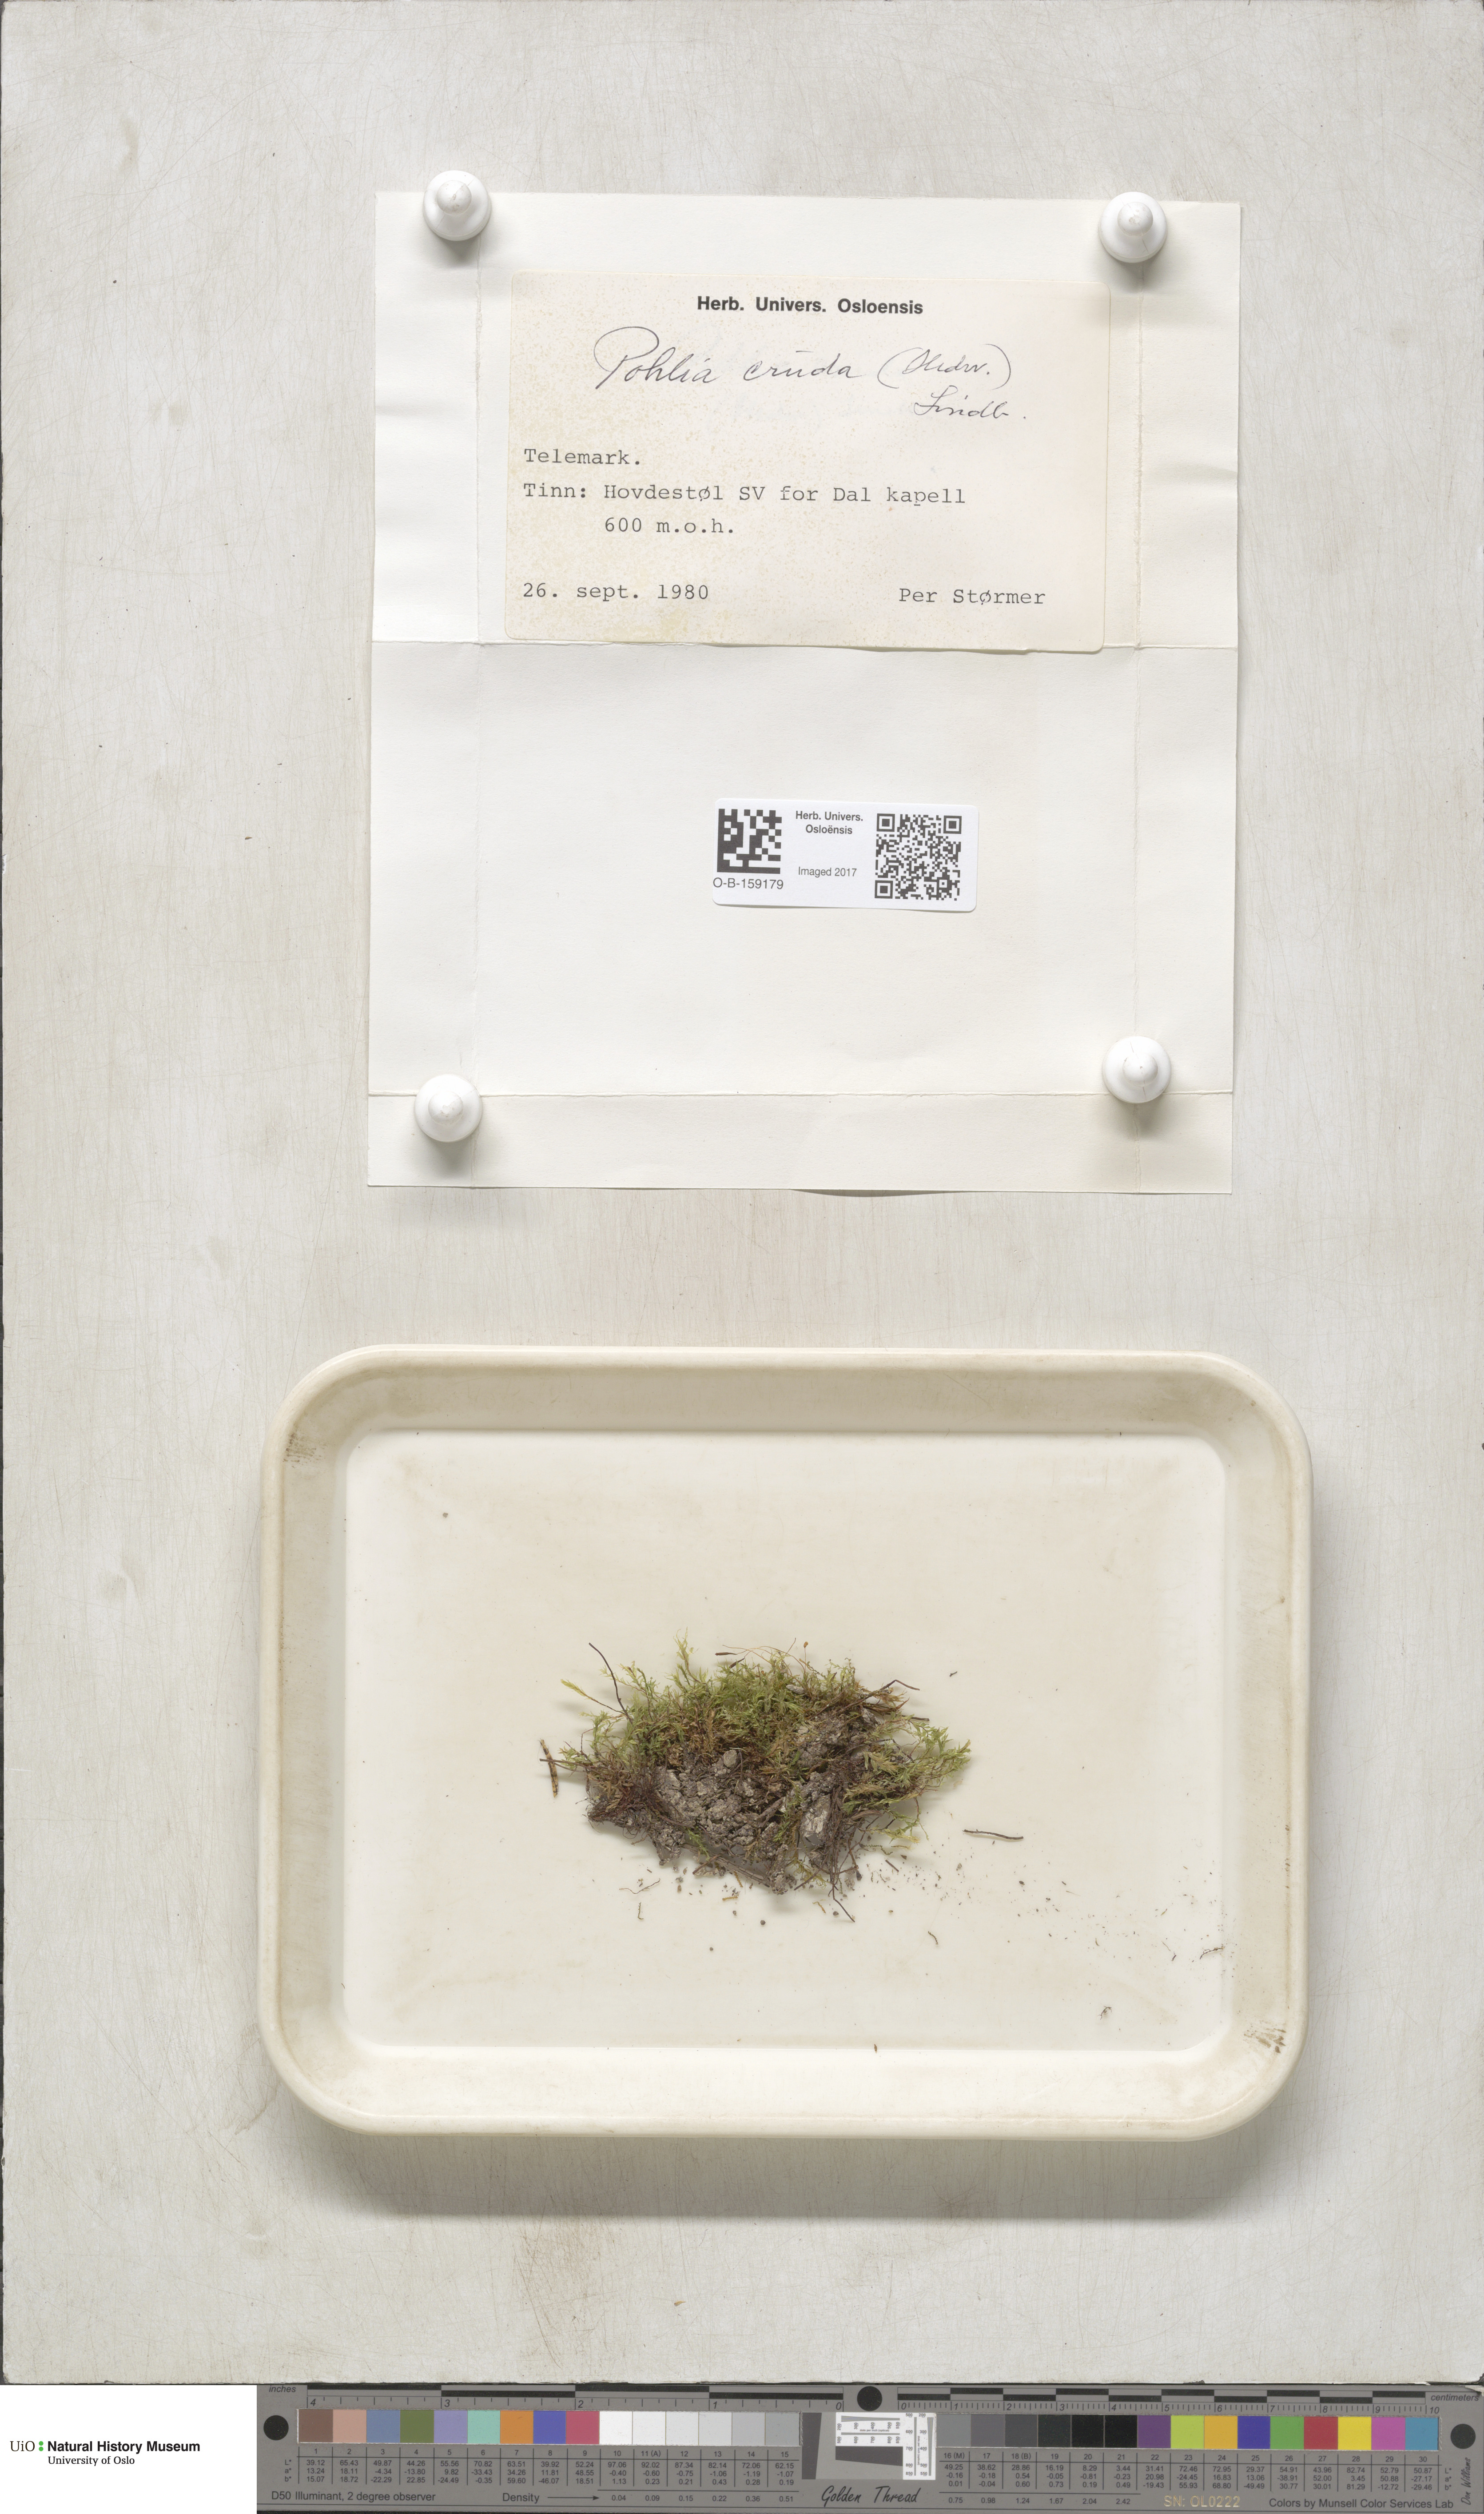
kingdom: Plantae
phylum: Bryophyta
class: Bryopsida
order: Bryales
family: Mniaceae
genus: Pohlia
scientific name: Pohlia cruda
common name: Opal nodding moss
